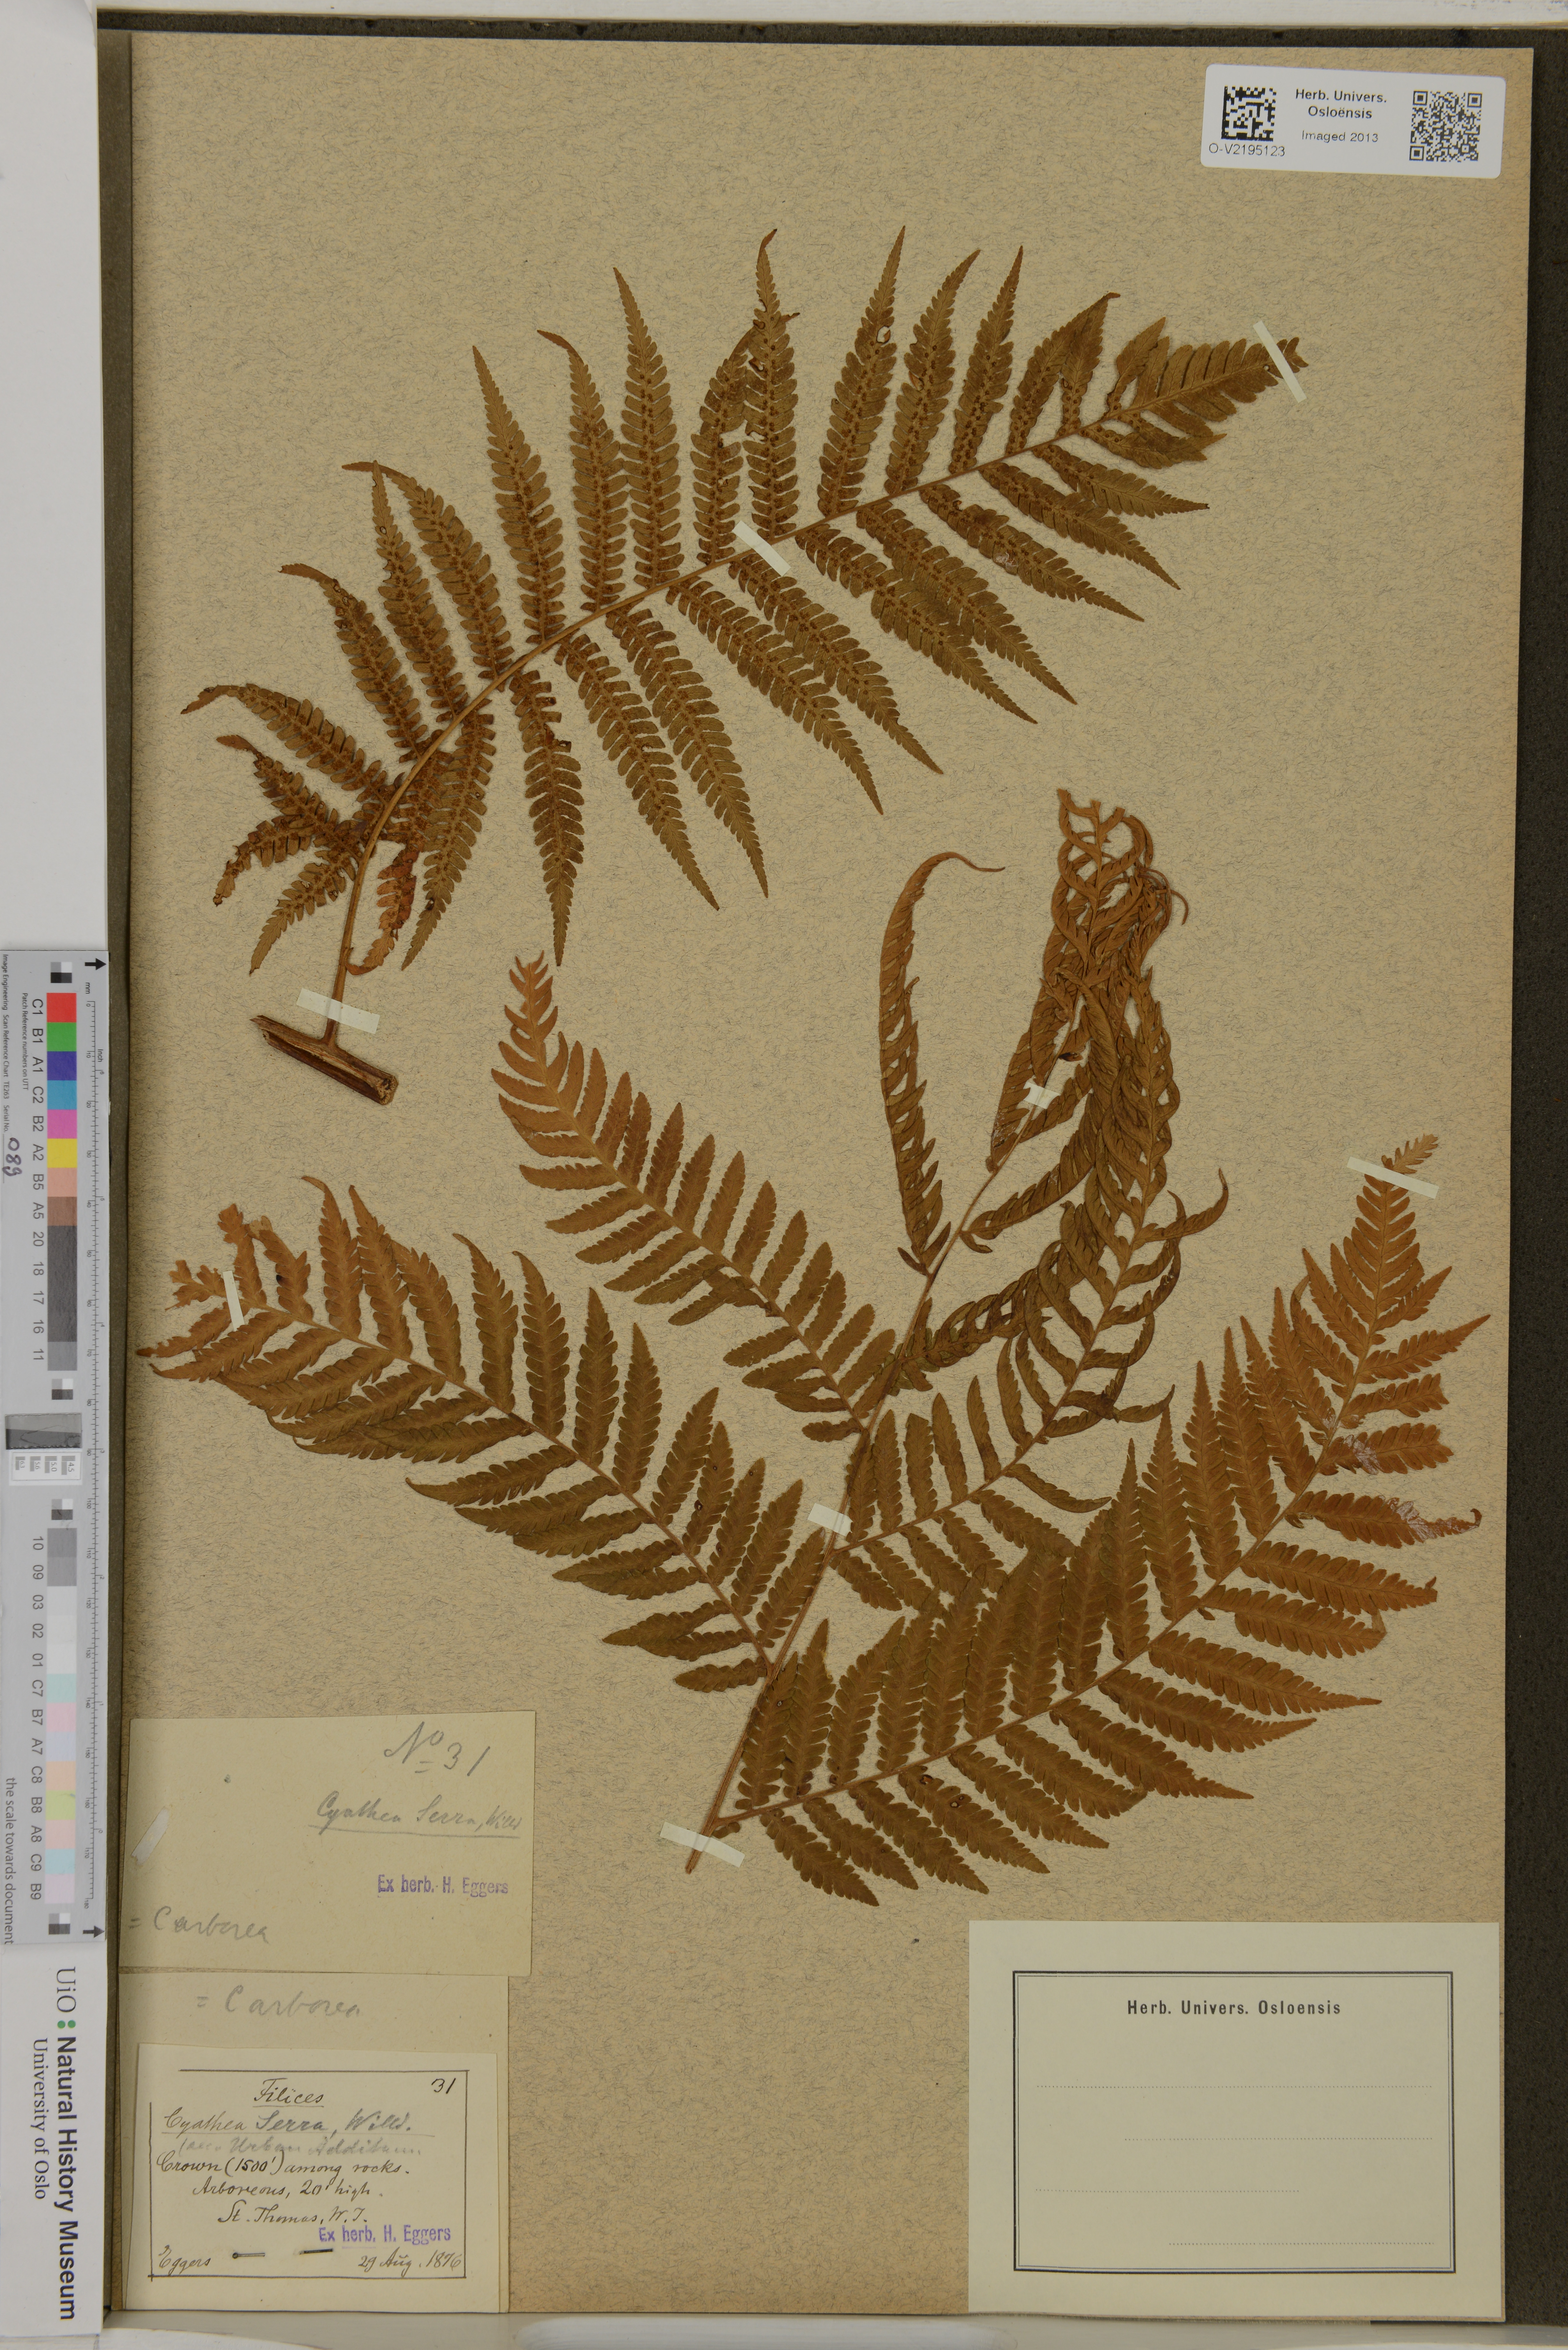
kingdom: Plantae
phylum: Tracheophyta
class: Polypodiopsida
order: Cyatheales
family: Cyatheaceae
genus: Cyathea
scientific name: Cyathea arborea
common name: West indian treefern
